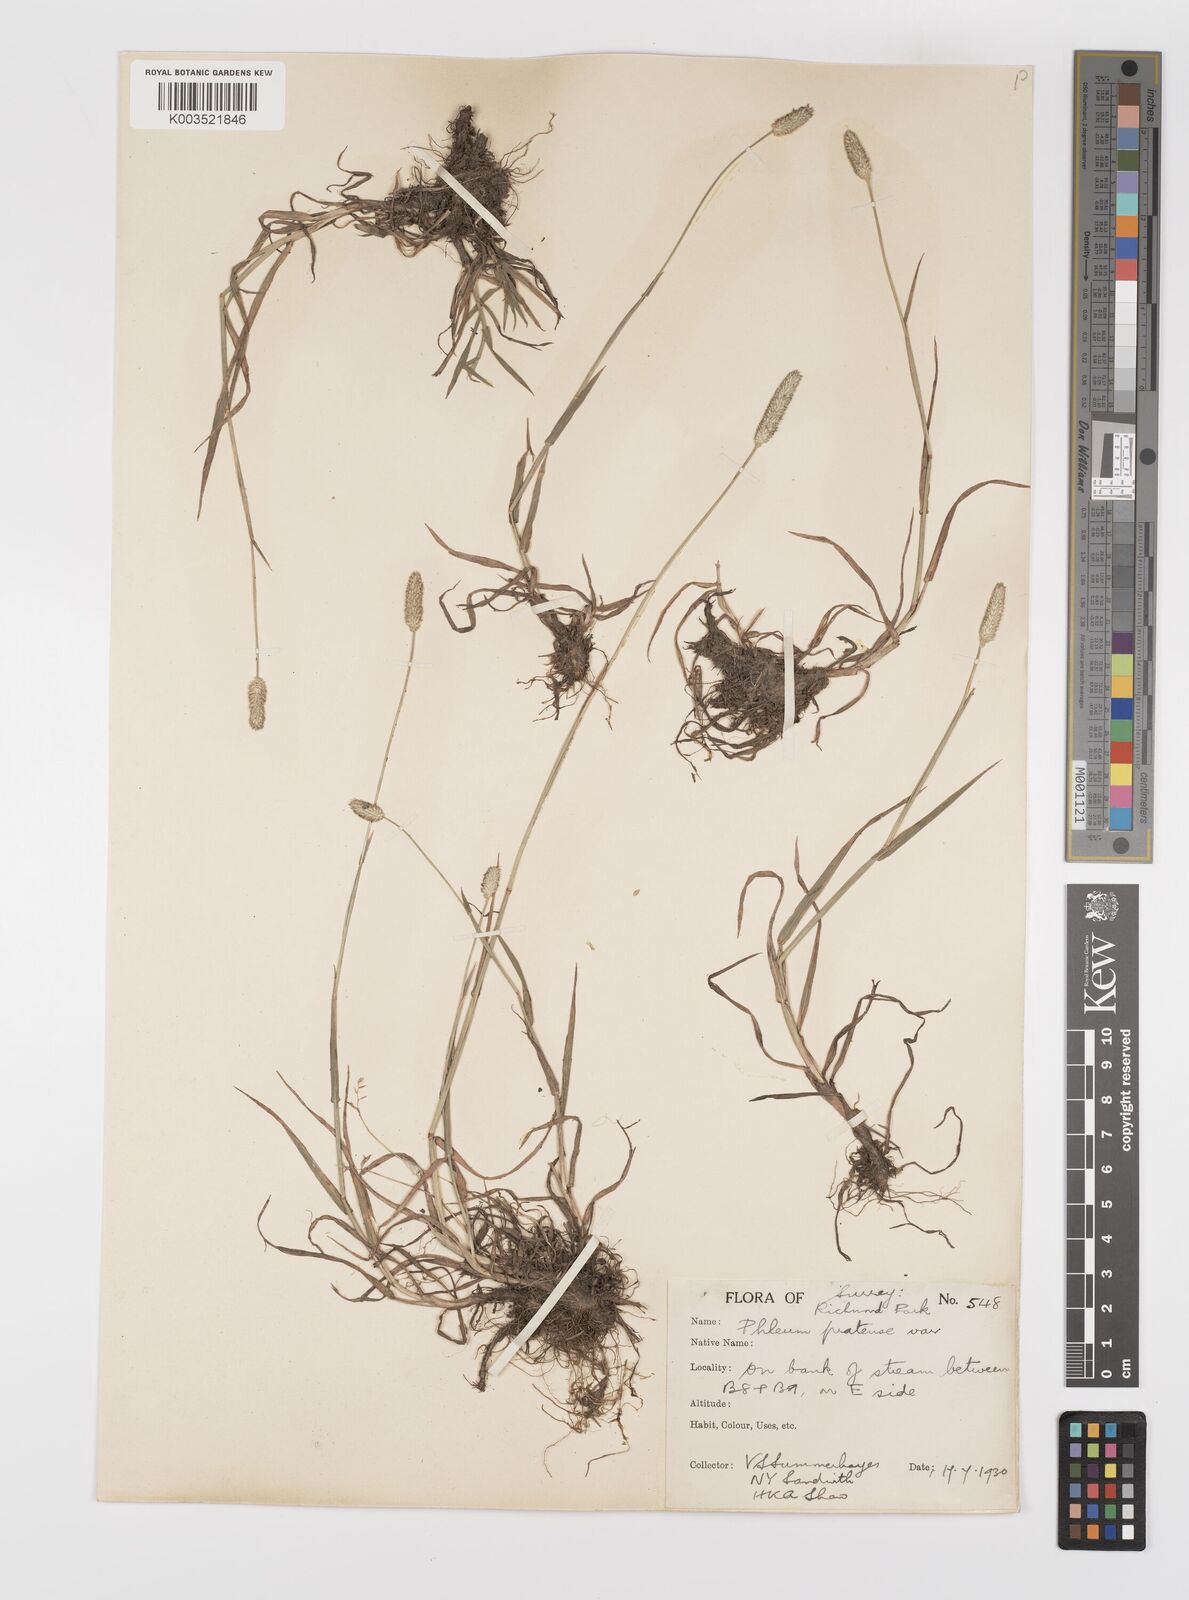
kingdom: Plantae
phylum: Tracheophyta
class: Liliopsida
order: Poales
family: Poaceae
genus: Phleum
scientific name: Phleum bertolonii
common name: Smaller cat's-tail
